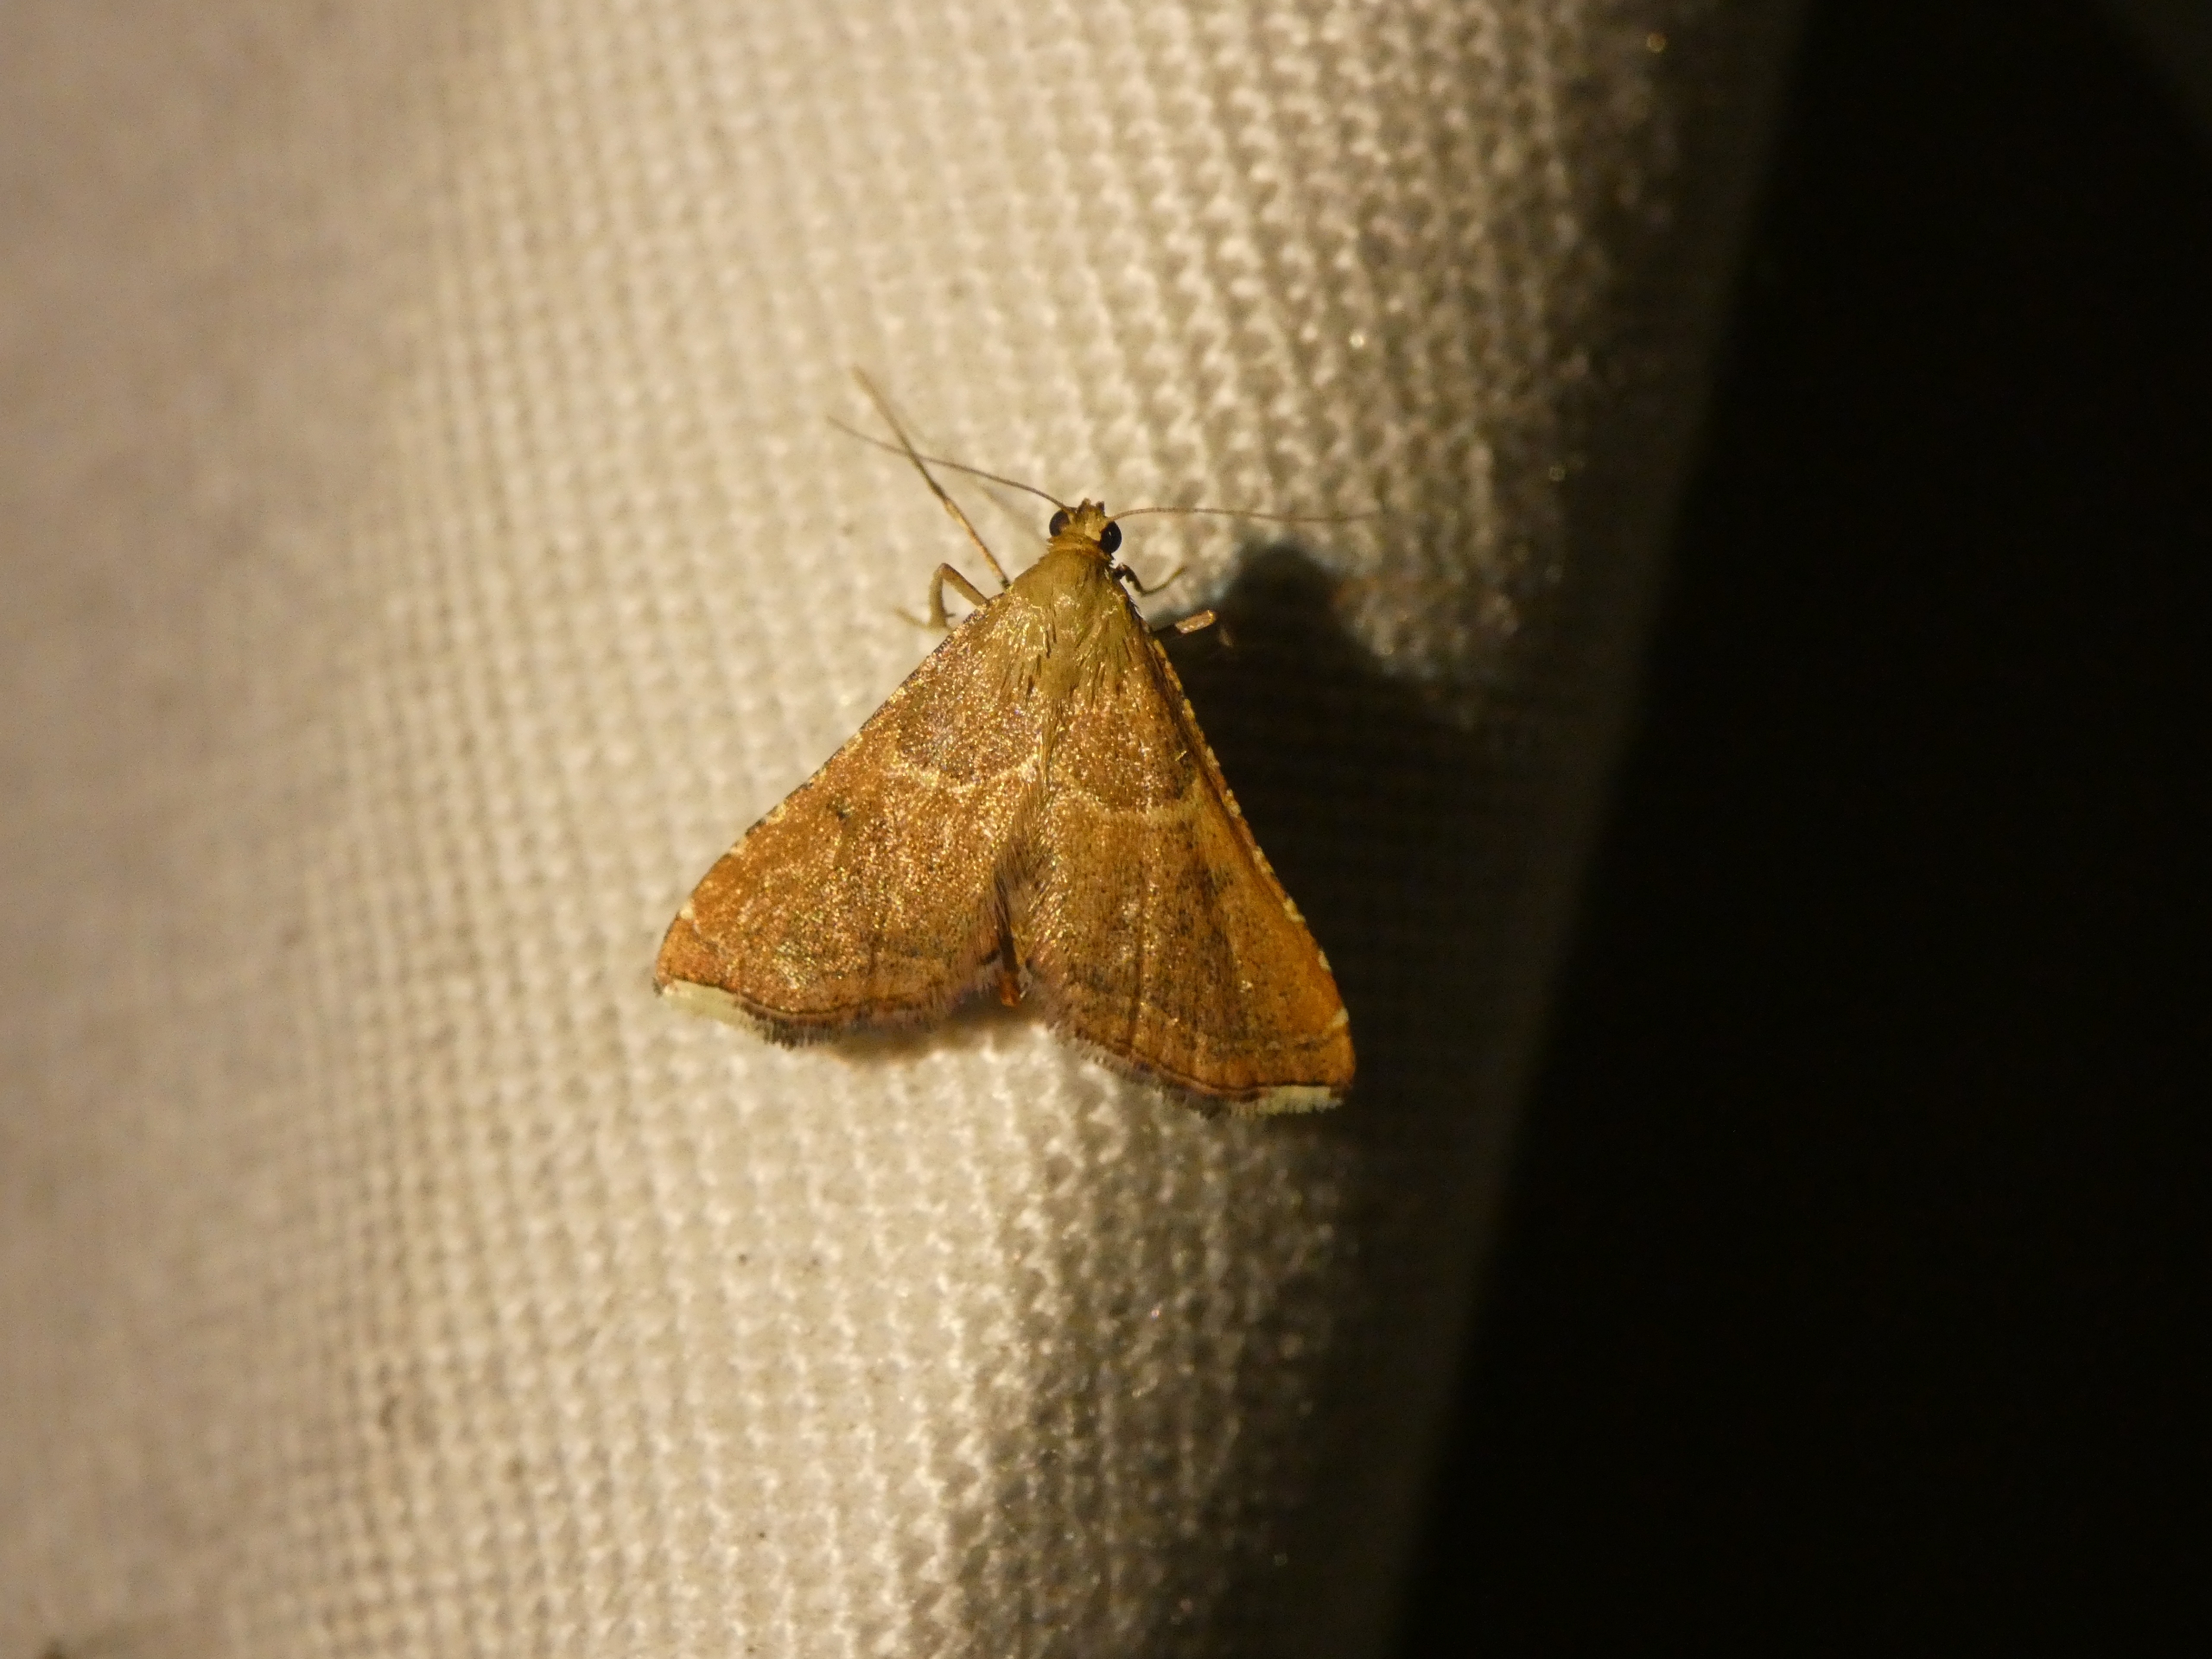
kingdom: Animalia
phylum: Arthropoda
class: Insecta
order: Lepidoptera
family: Pyralidae
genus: Endotricha
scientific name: Endotricha flammealis
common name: Løvkrathalvmøl
